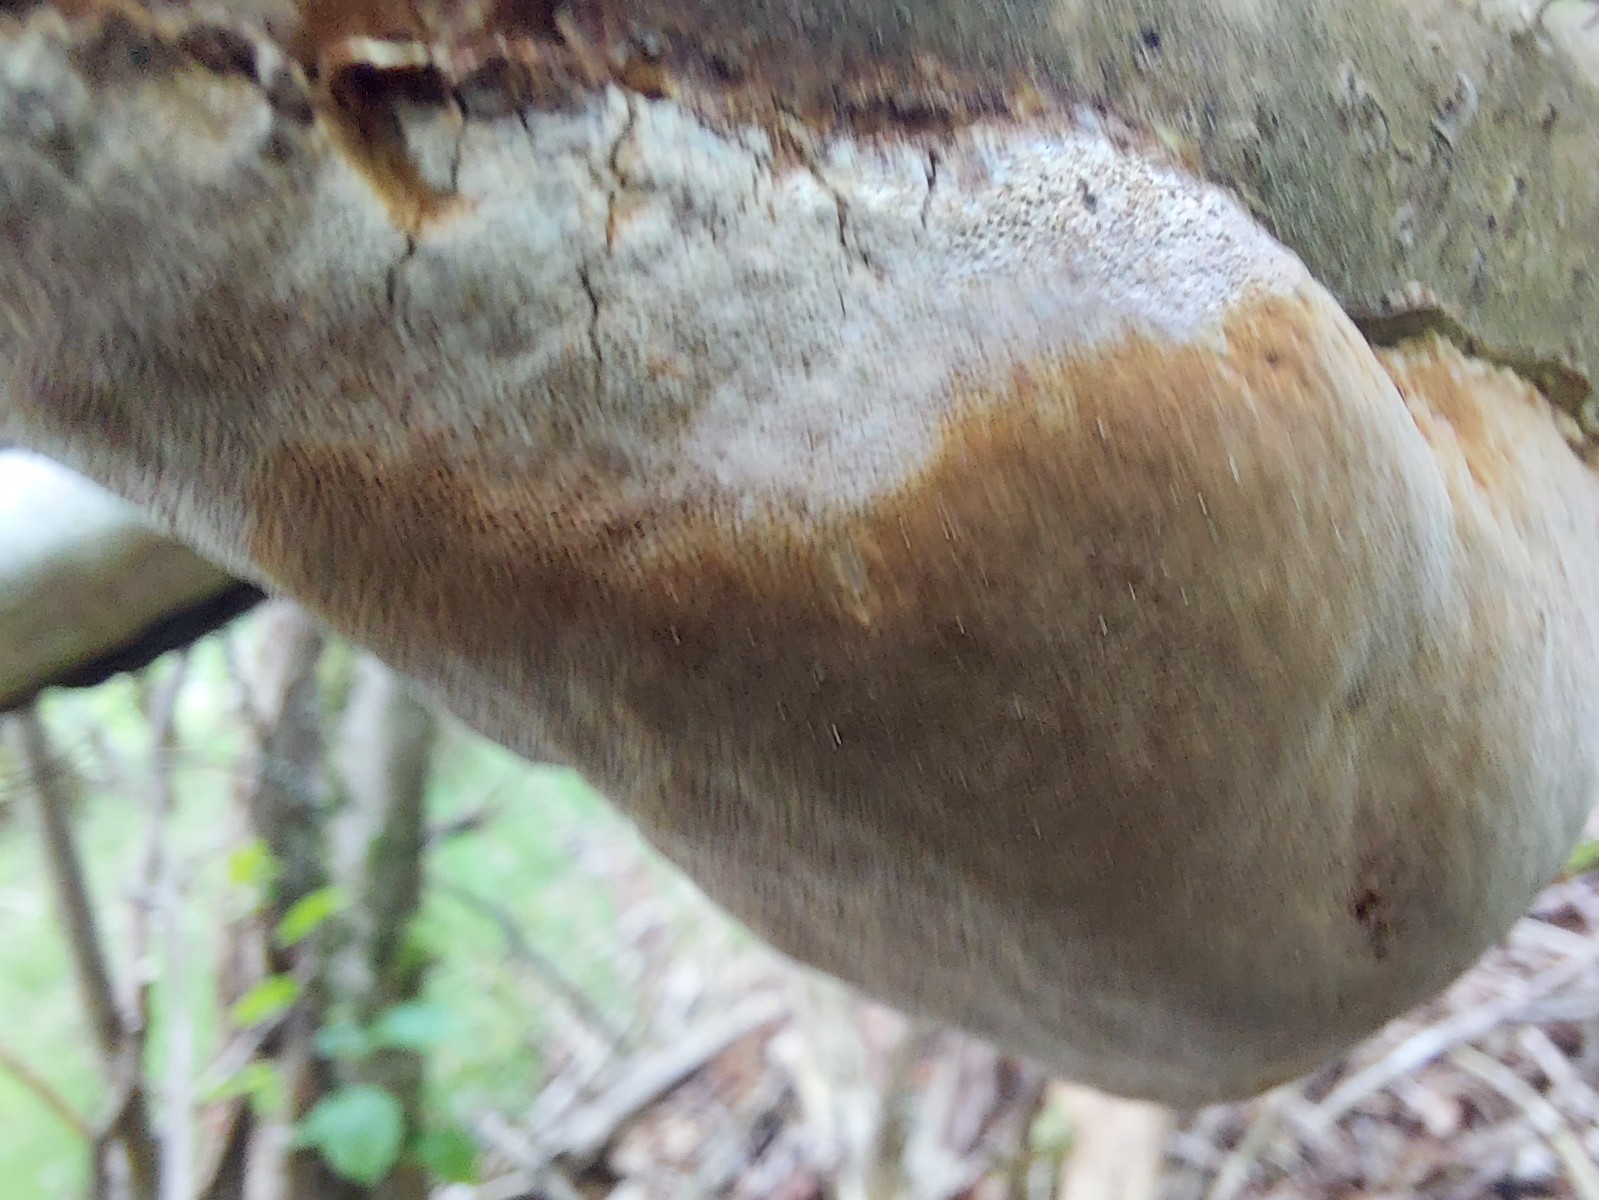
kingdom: Fungi
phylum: Basidiomycota
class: Agaricomycetes
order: Hymenochaetales
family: Hymenochaetaceae
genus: Fomitiporia
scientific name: Fomitiporia punctata
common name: pude-ildporesvamp
